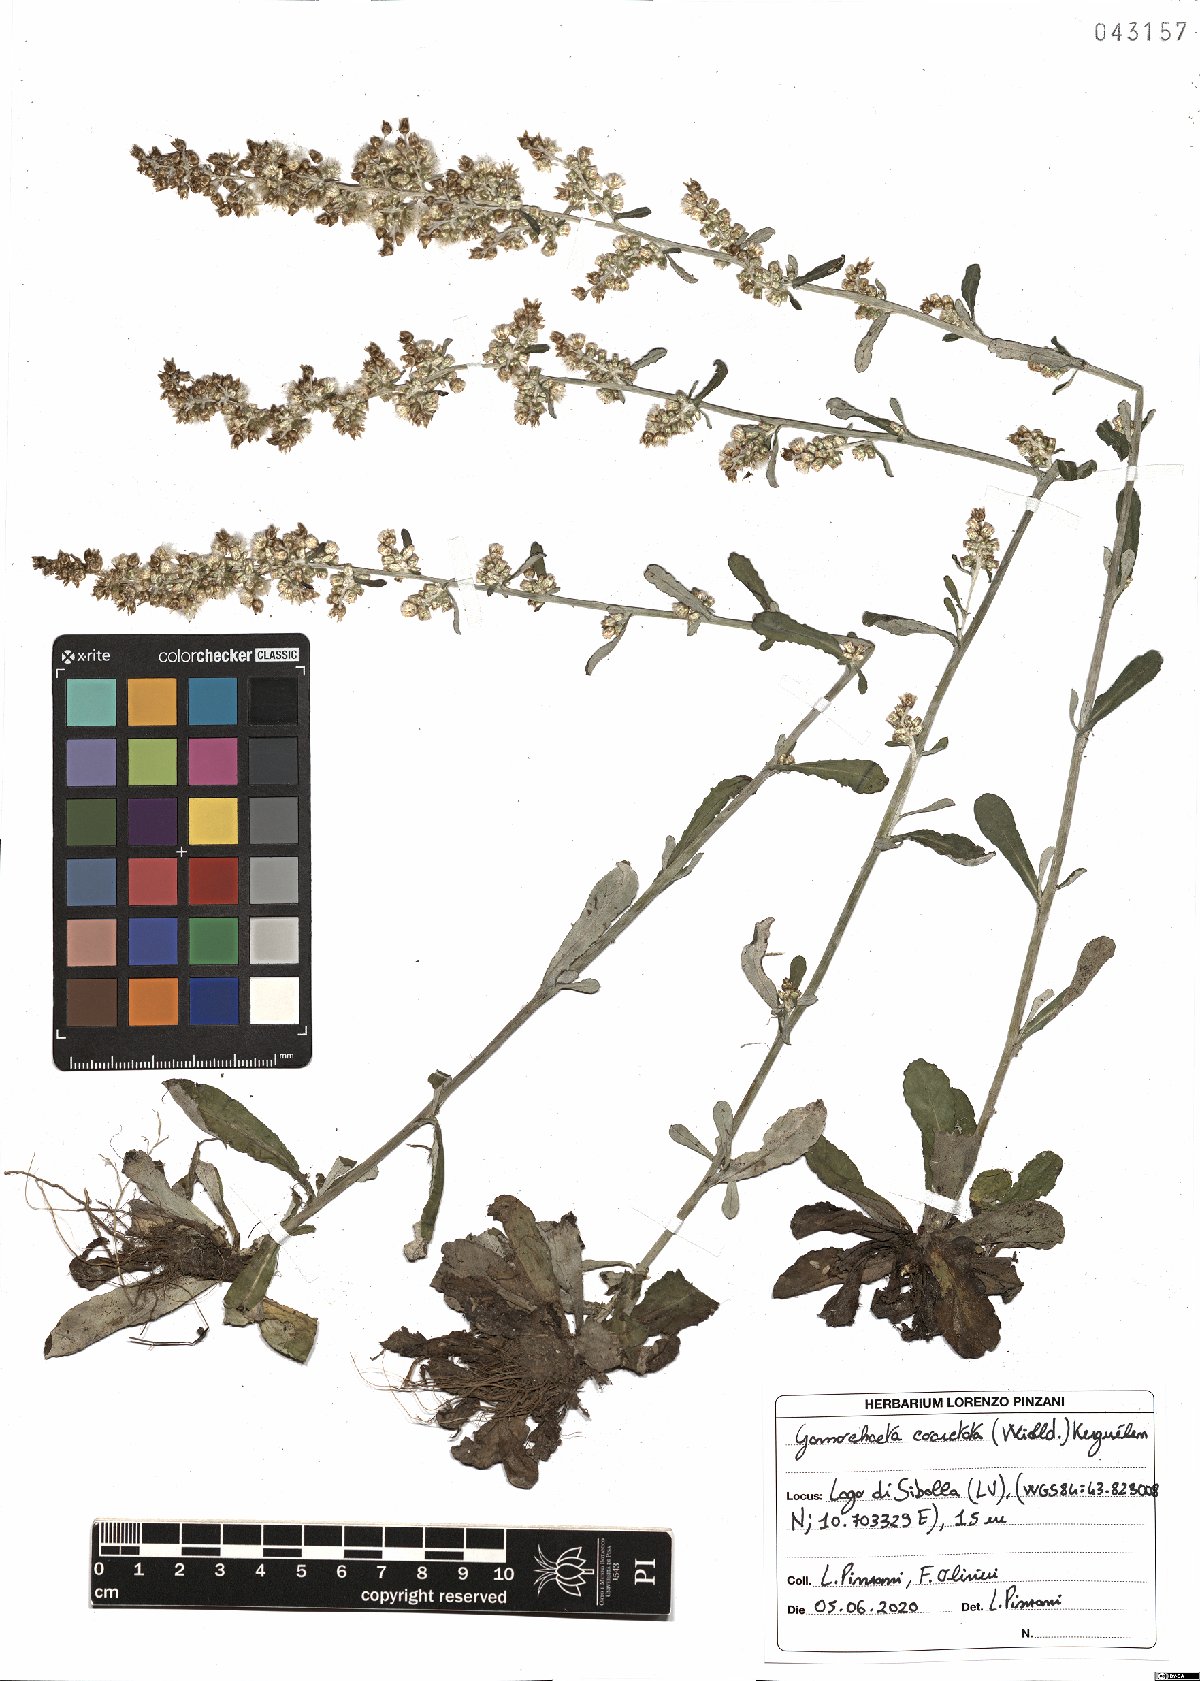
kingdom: Plantae
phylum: Tracheophyta
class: Magnoliopsida
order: Asterales
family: Asteraceae
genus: Gamochaeta
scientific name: Gamochaeta americana
